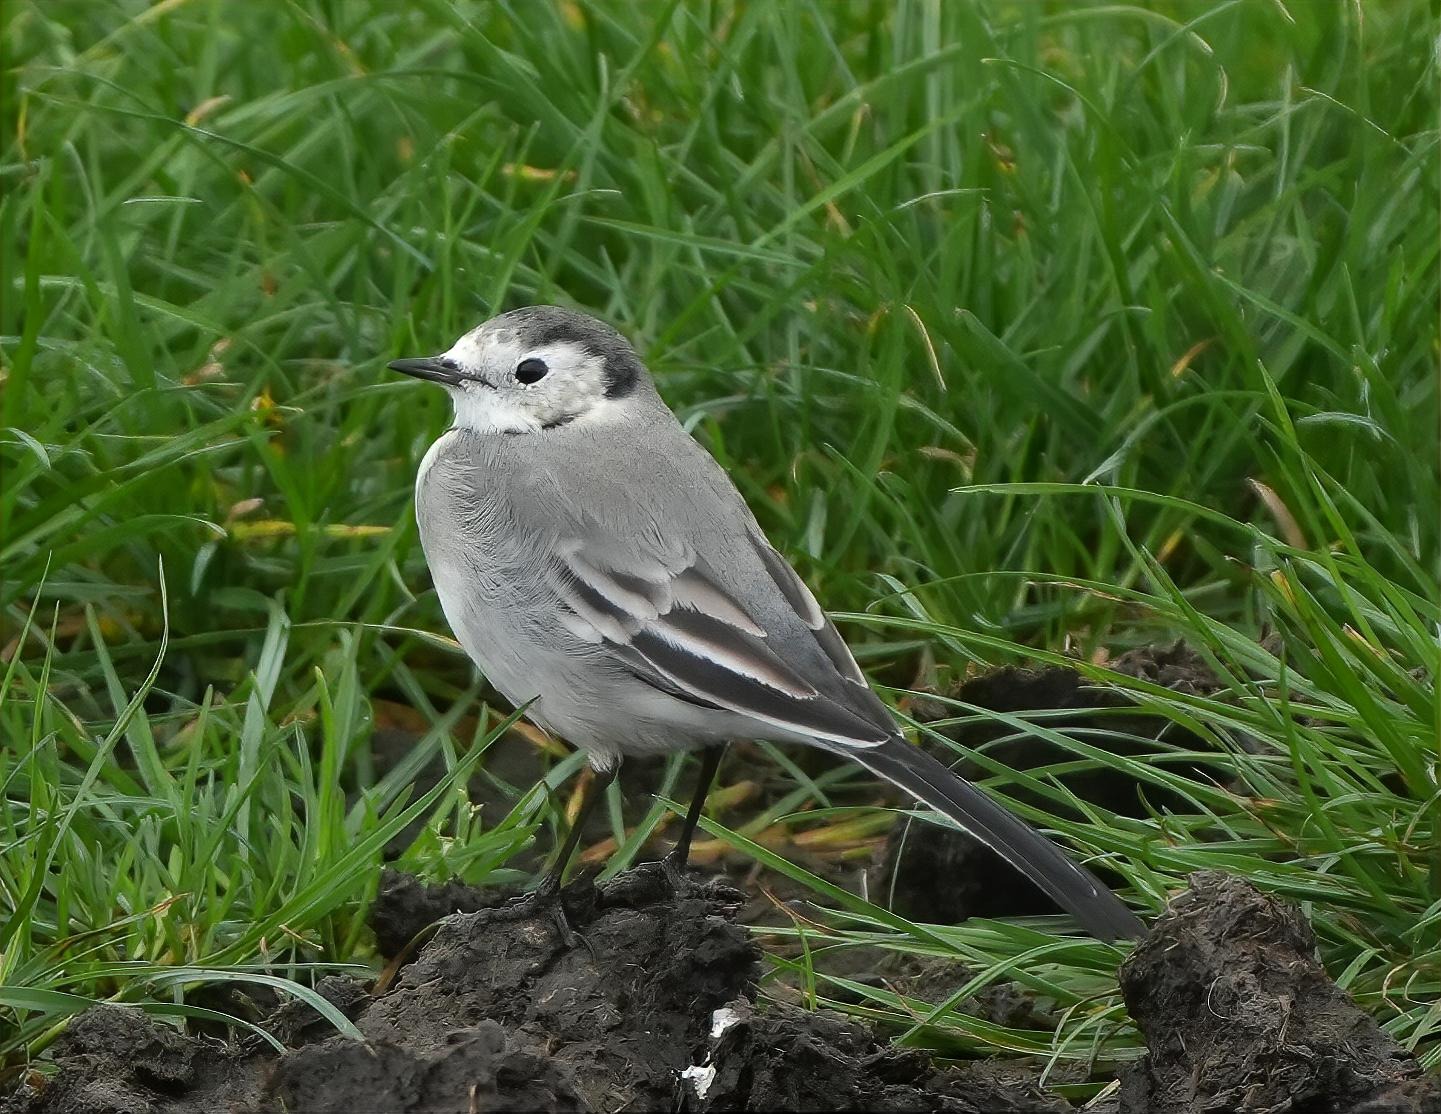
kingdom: Animalia
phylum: Chordata
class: Aves
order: Passeriformes
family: Motacillidae
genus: Motacilla
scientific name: Motacilla alba
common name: Hvid vipstjert
